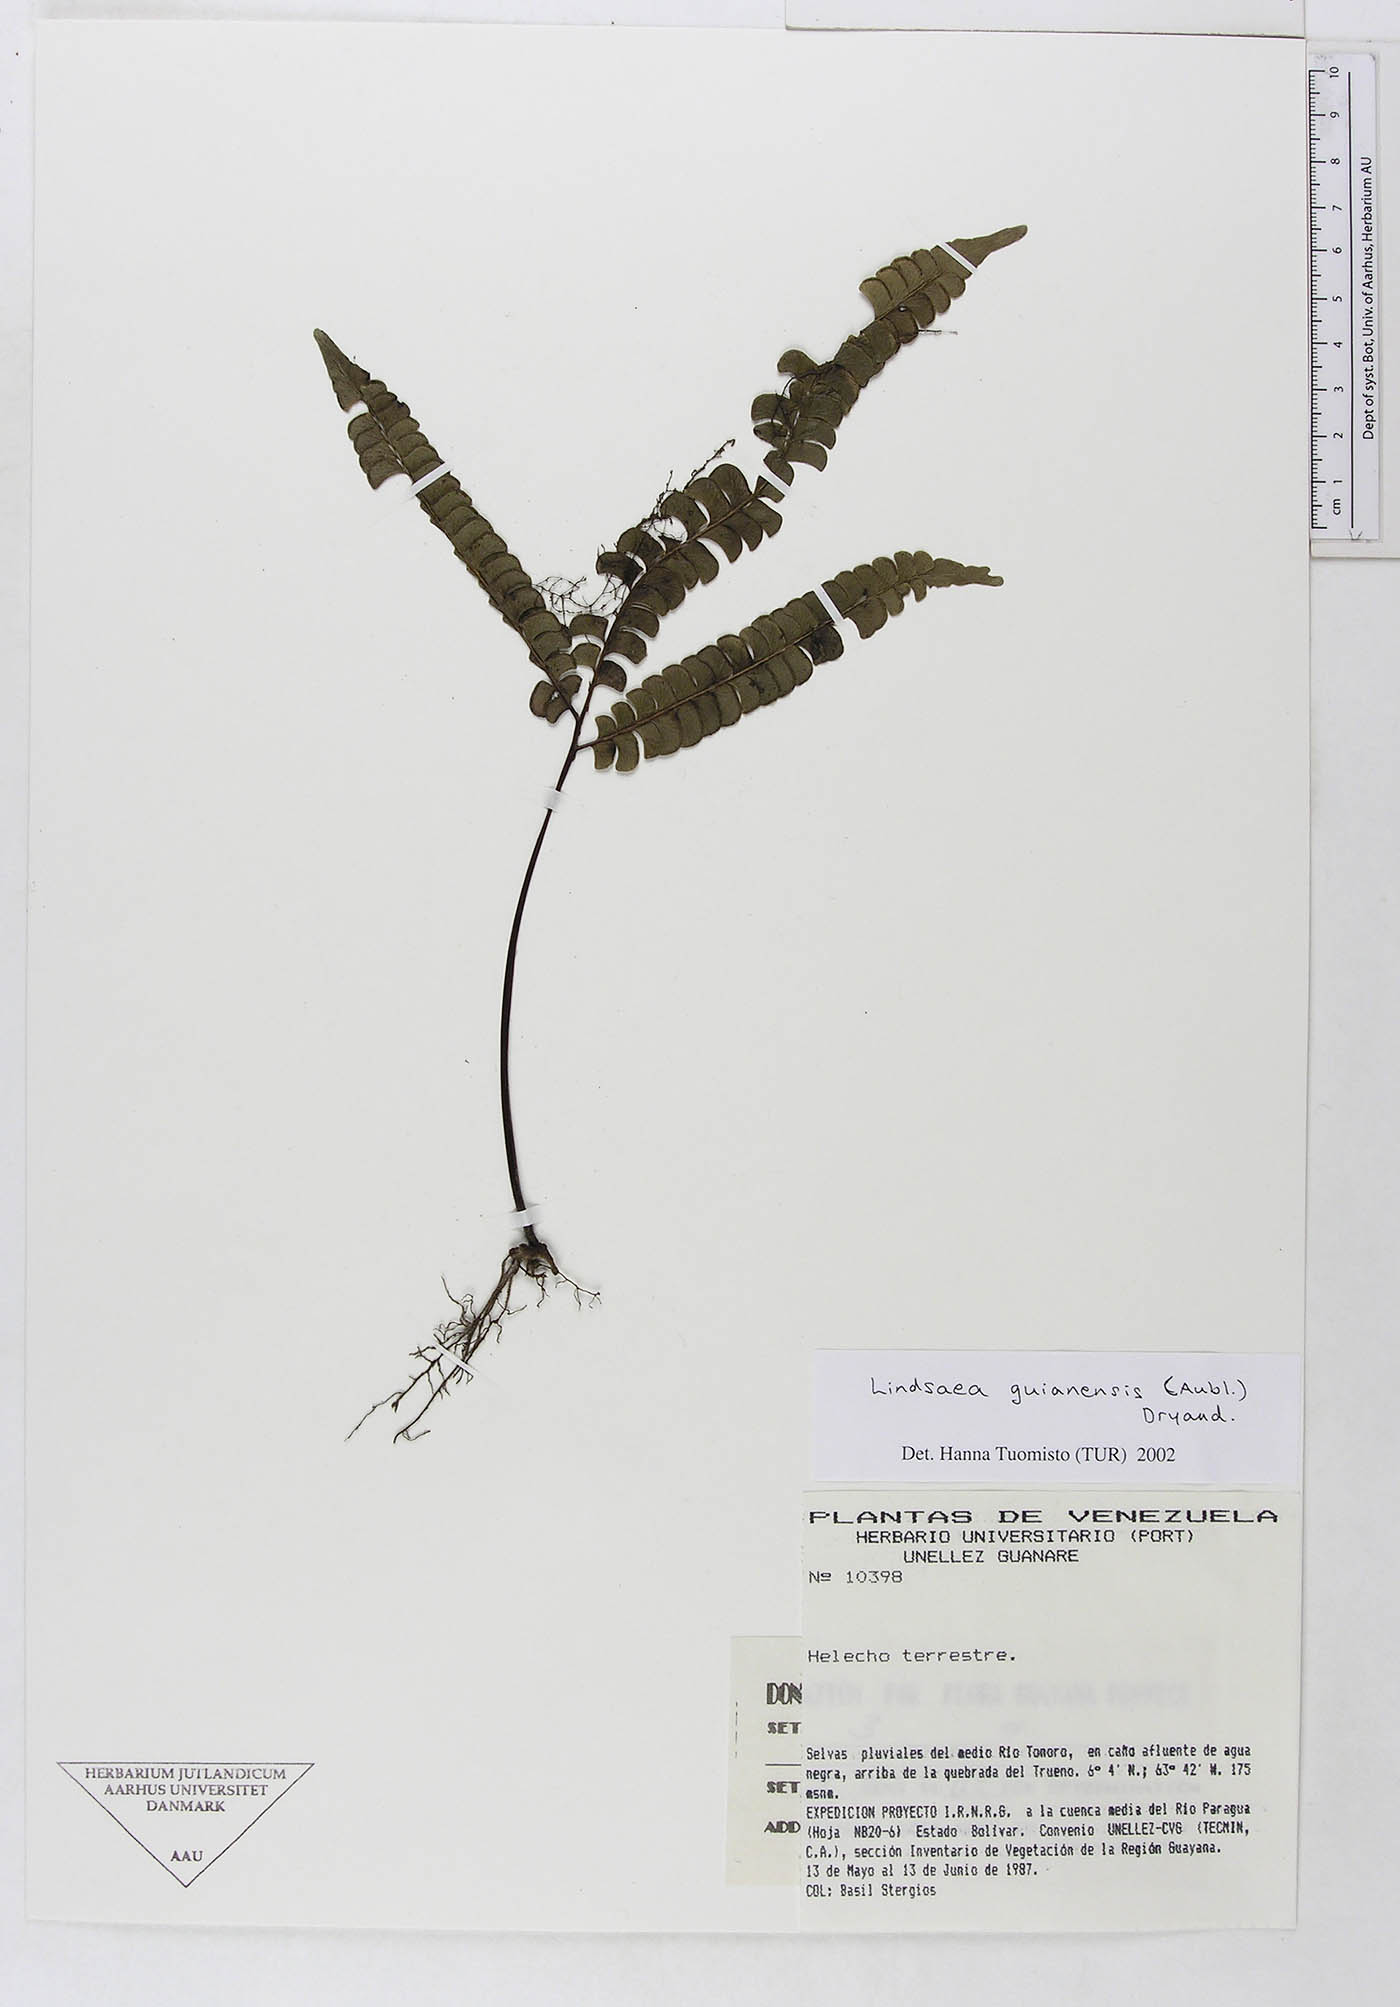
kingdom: Plantae
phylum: Tracheophyta
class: Polypodiopsida
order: Polypodiales
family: Lindsaeaceae
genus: Lindsaea
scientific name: Lindsaea guianensis
